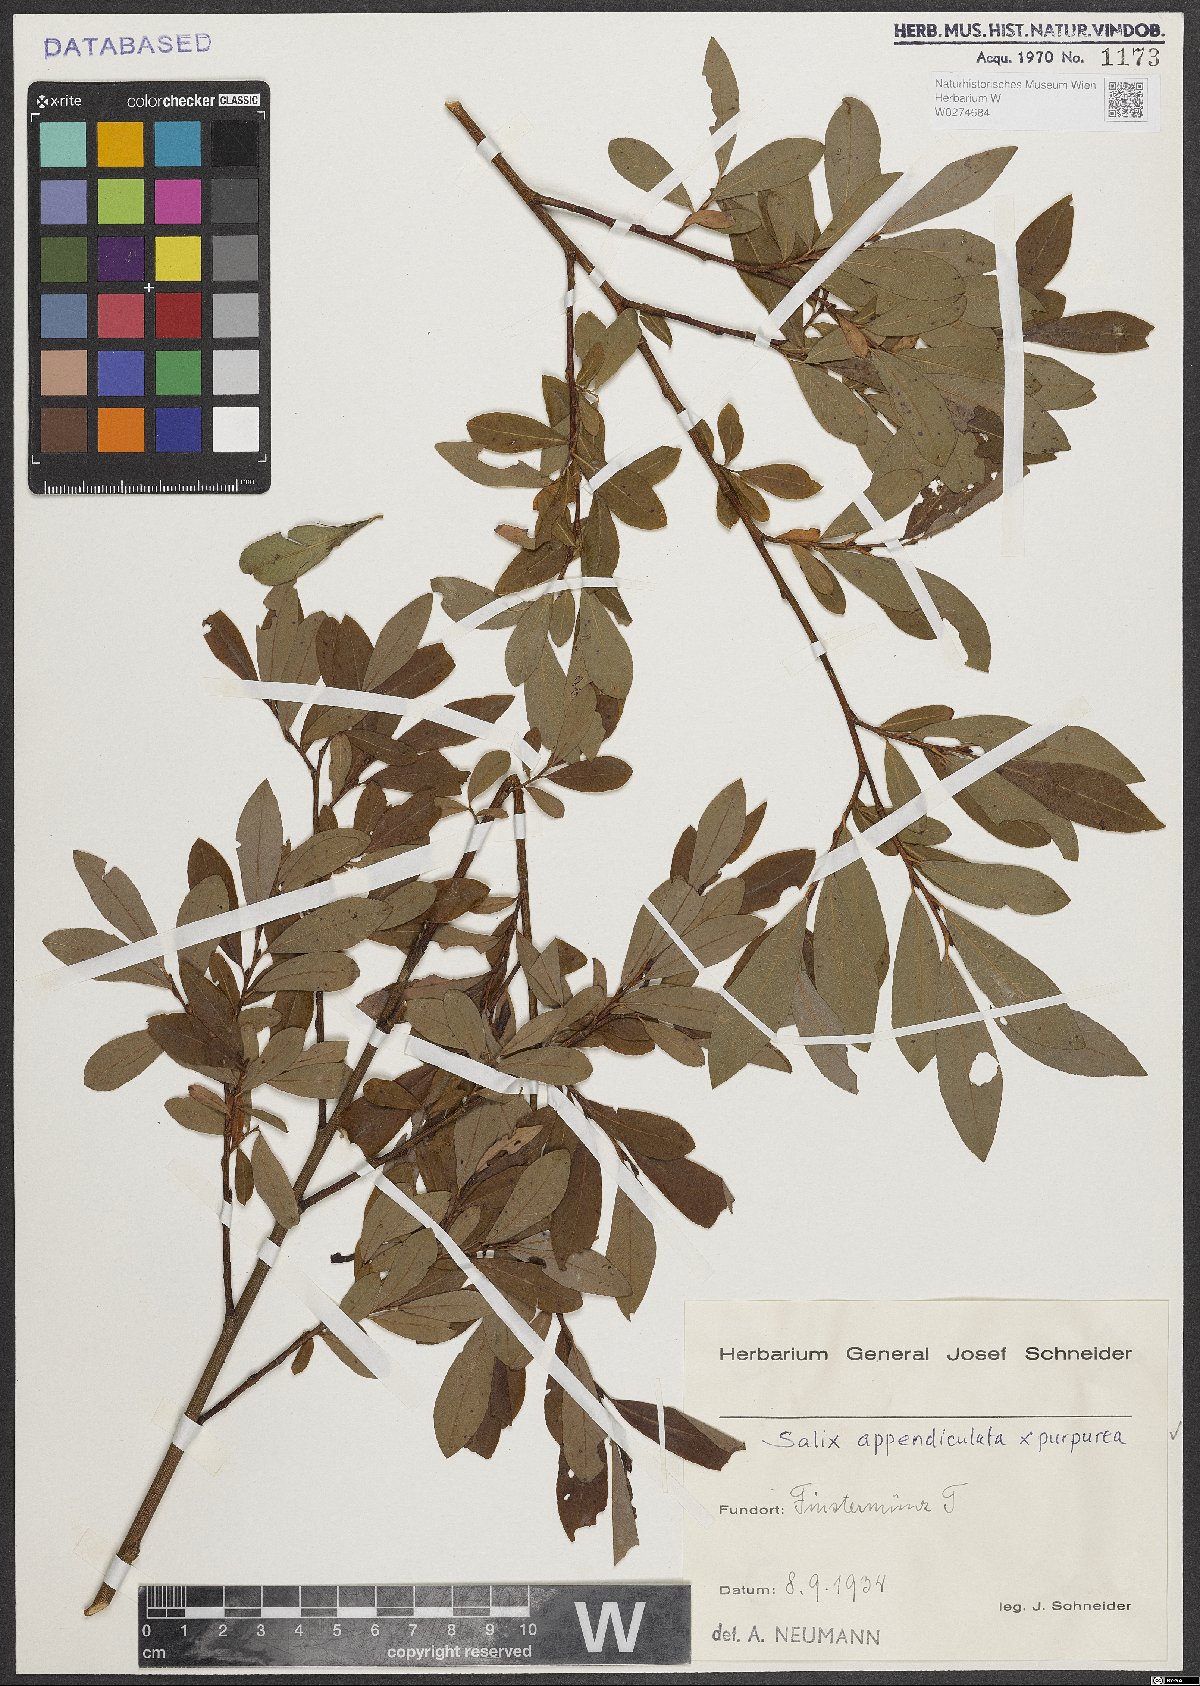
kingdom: Plantae
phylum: Tracheophyta
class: Magnoliopsida
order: Malpighiales
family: Salicaceae
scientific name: Salicaceae
